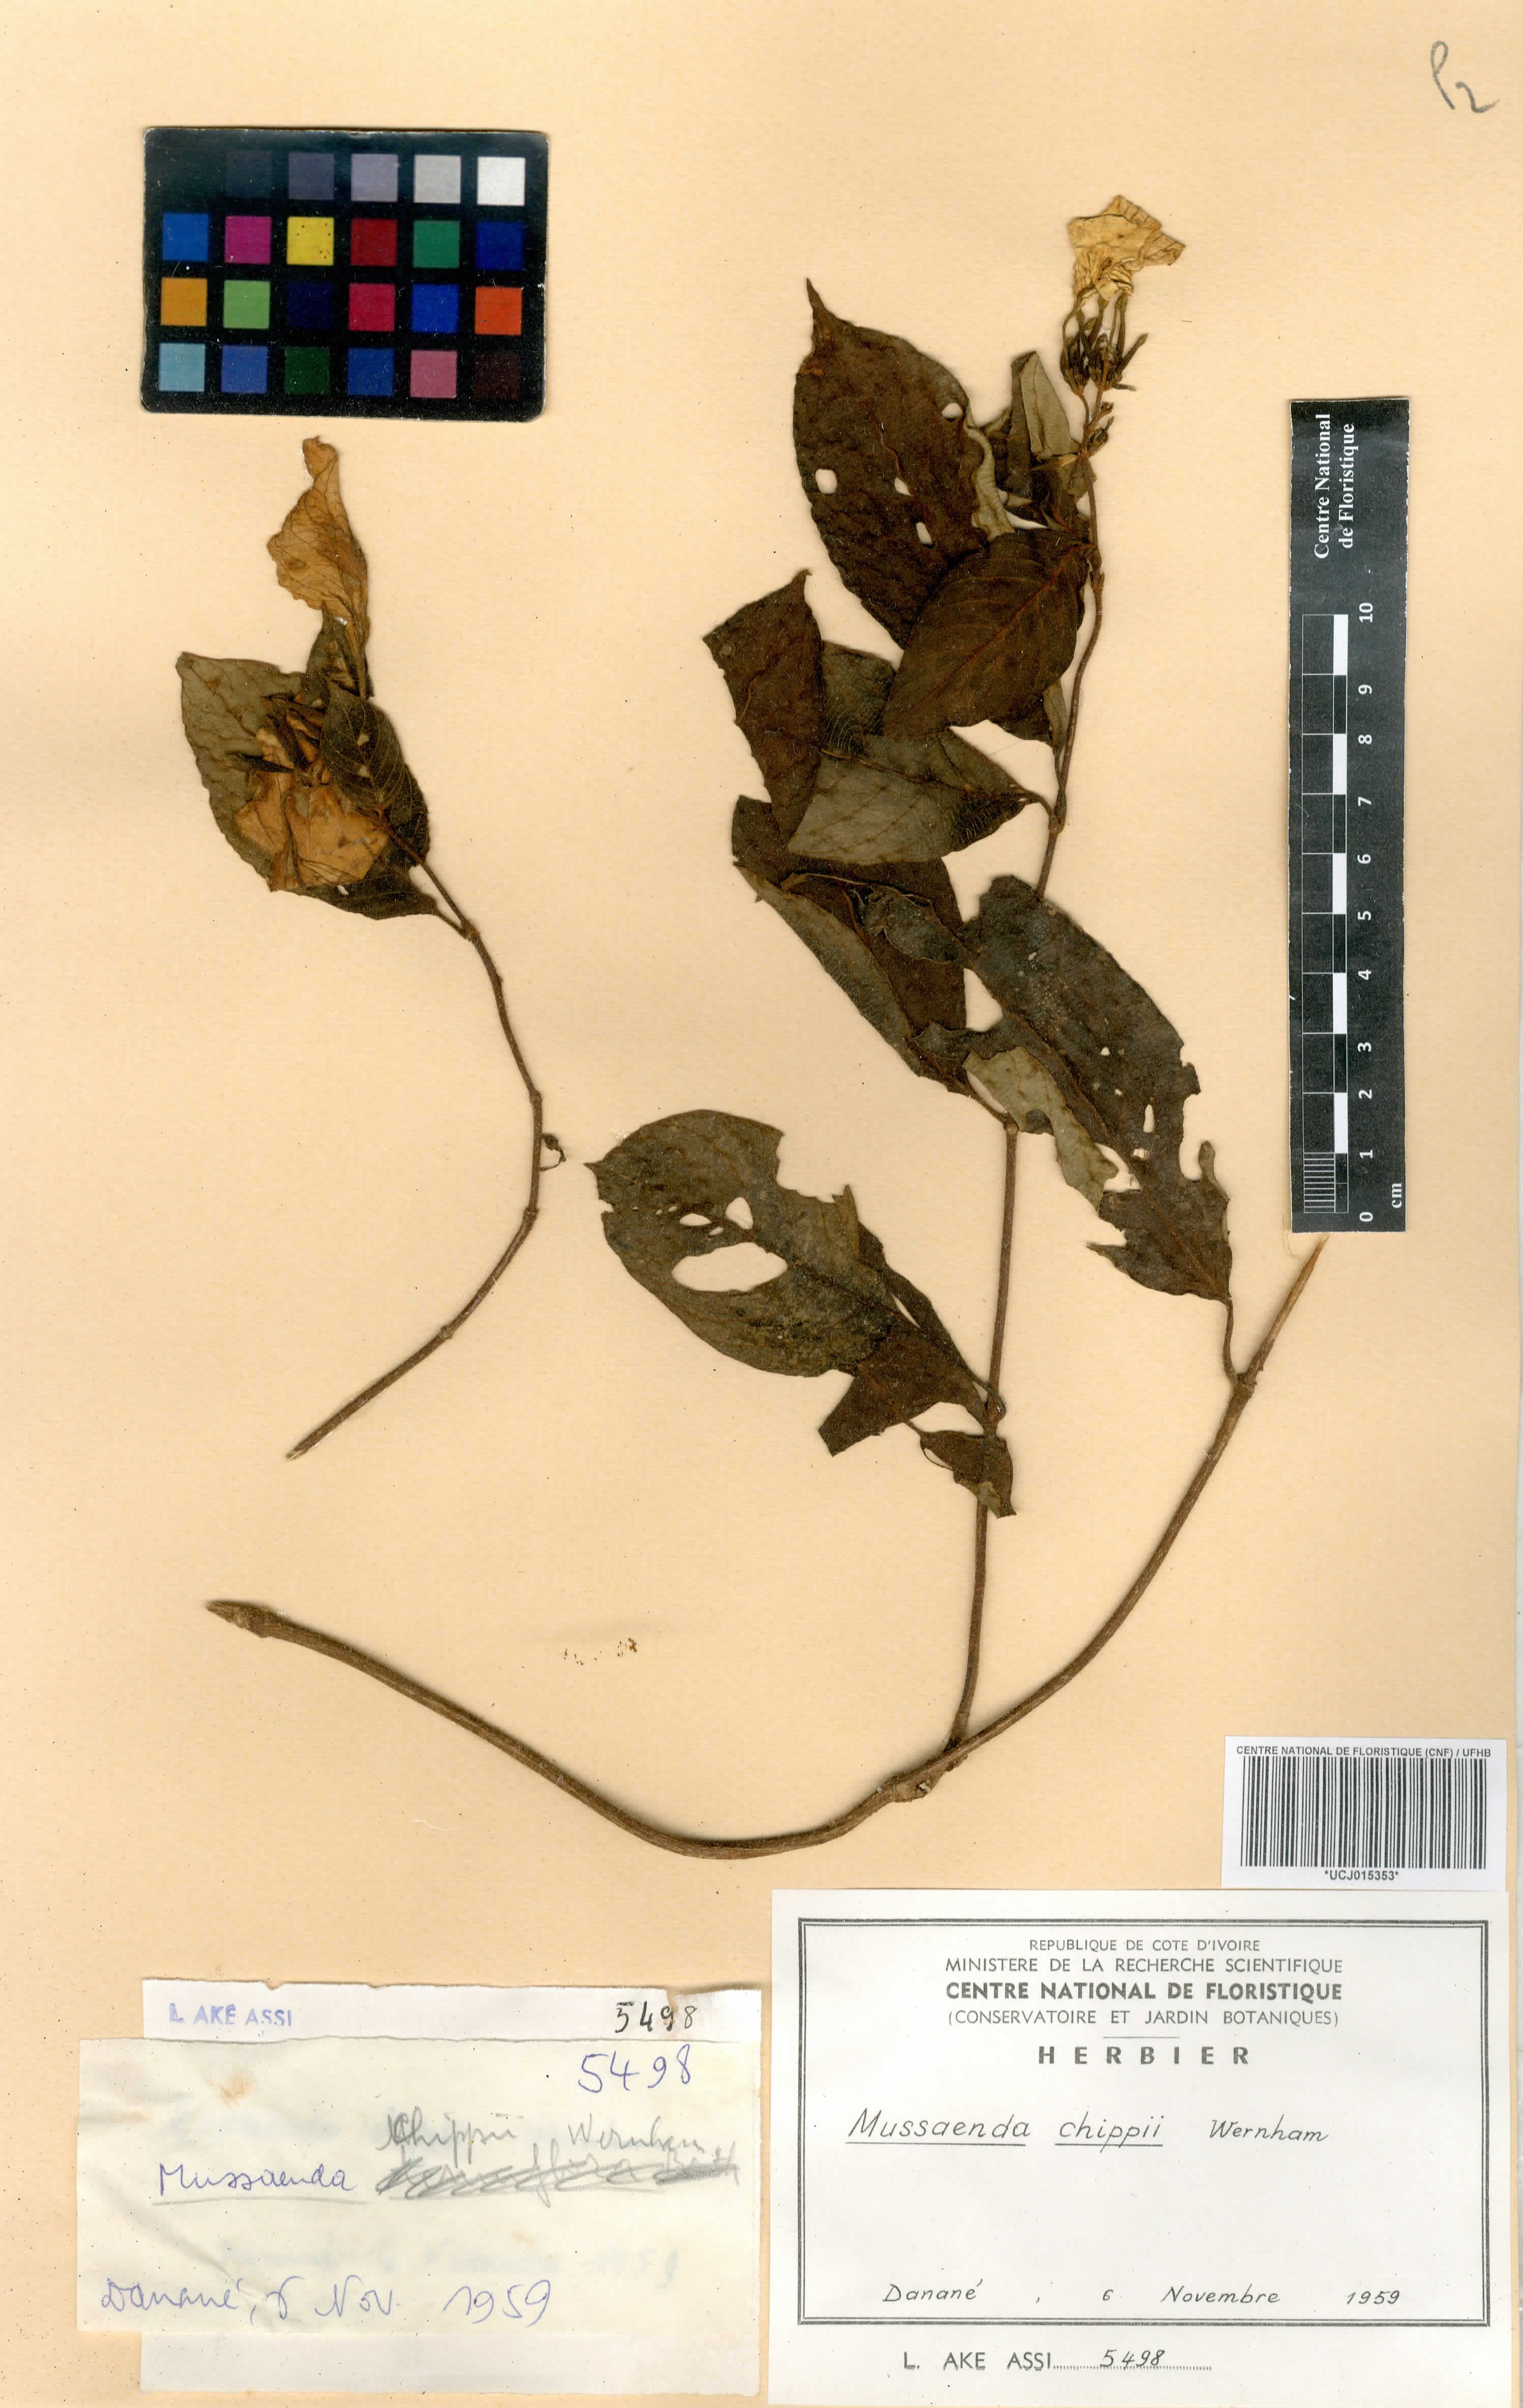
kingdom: Plantae
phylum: Tracheophyta
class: Magnoliopsida
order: Gentianales
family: Rubiaceae
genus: Mussaenda
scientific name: Mussaenda chippii
